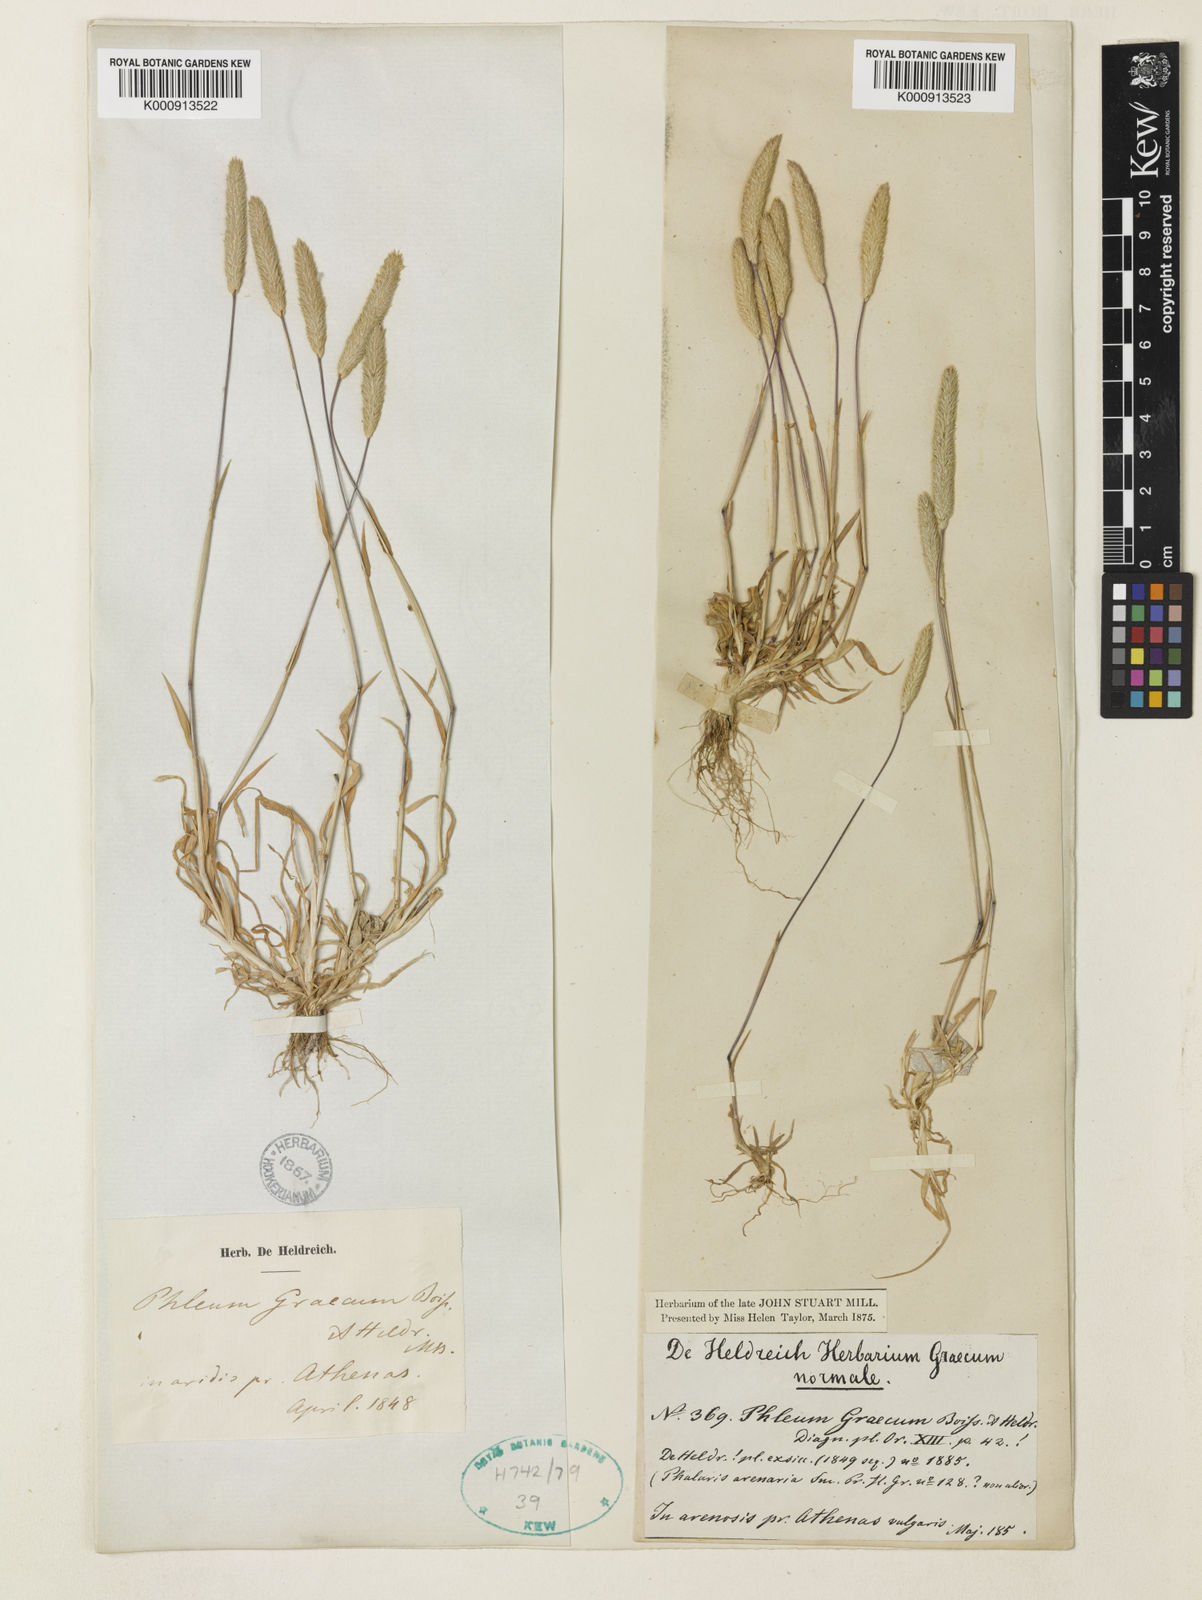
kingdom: Plantae
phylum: Tracheophyta
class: Liliopsida
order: Poales
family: Poaceae
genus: Phleum
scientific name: Phleum exaratum
